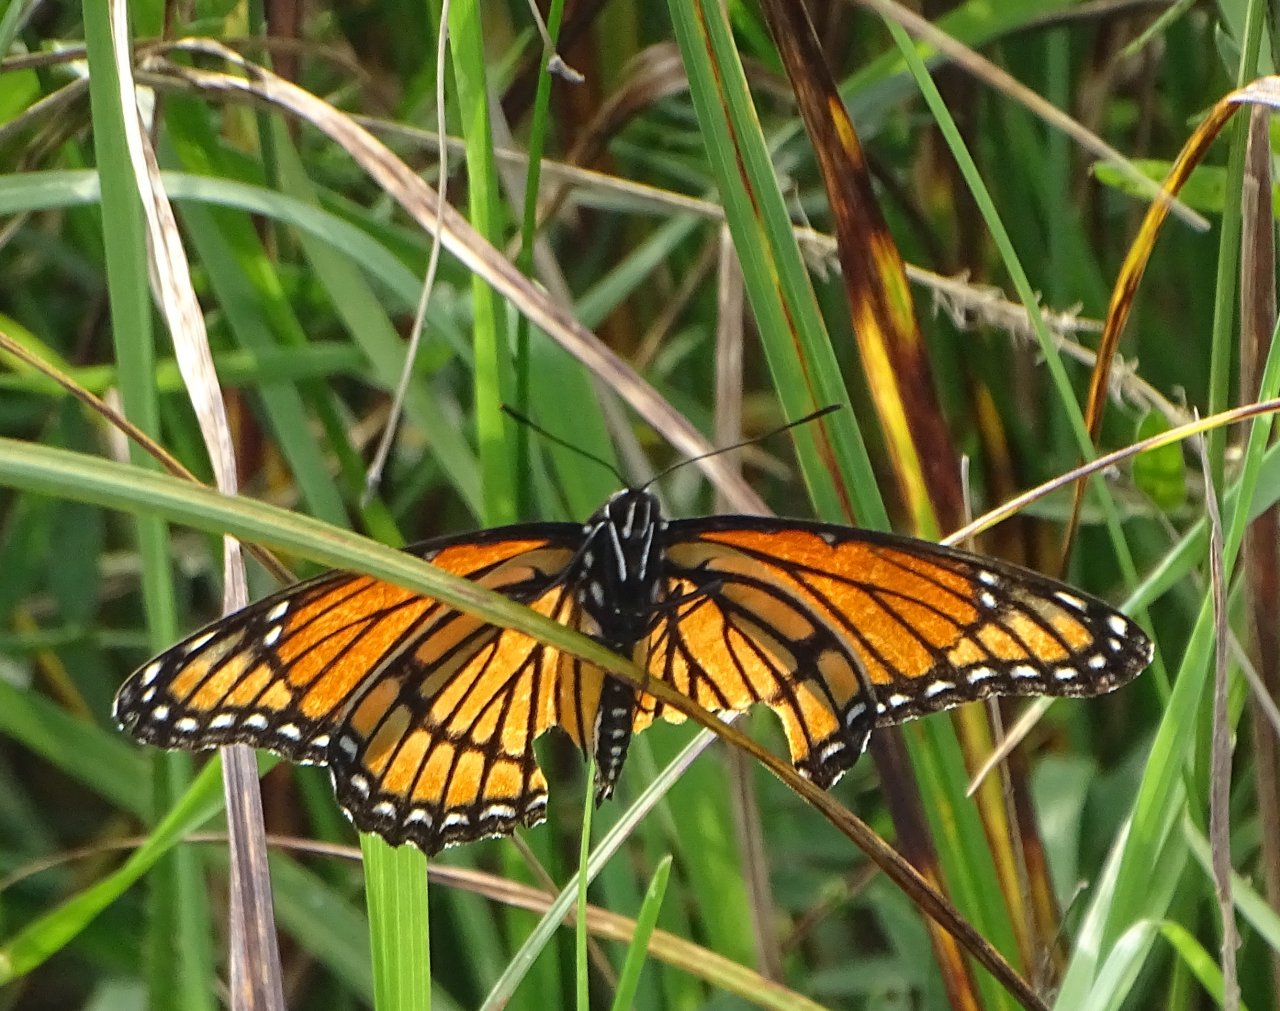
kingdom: Animalia
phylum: Arthropoda
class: Insecta
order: Lepidoptera
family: Nymphalidae
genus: Limenitis
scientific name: Limenitis archippus
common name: Viceroy
